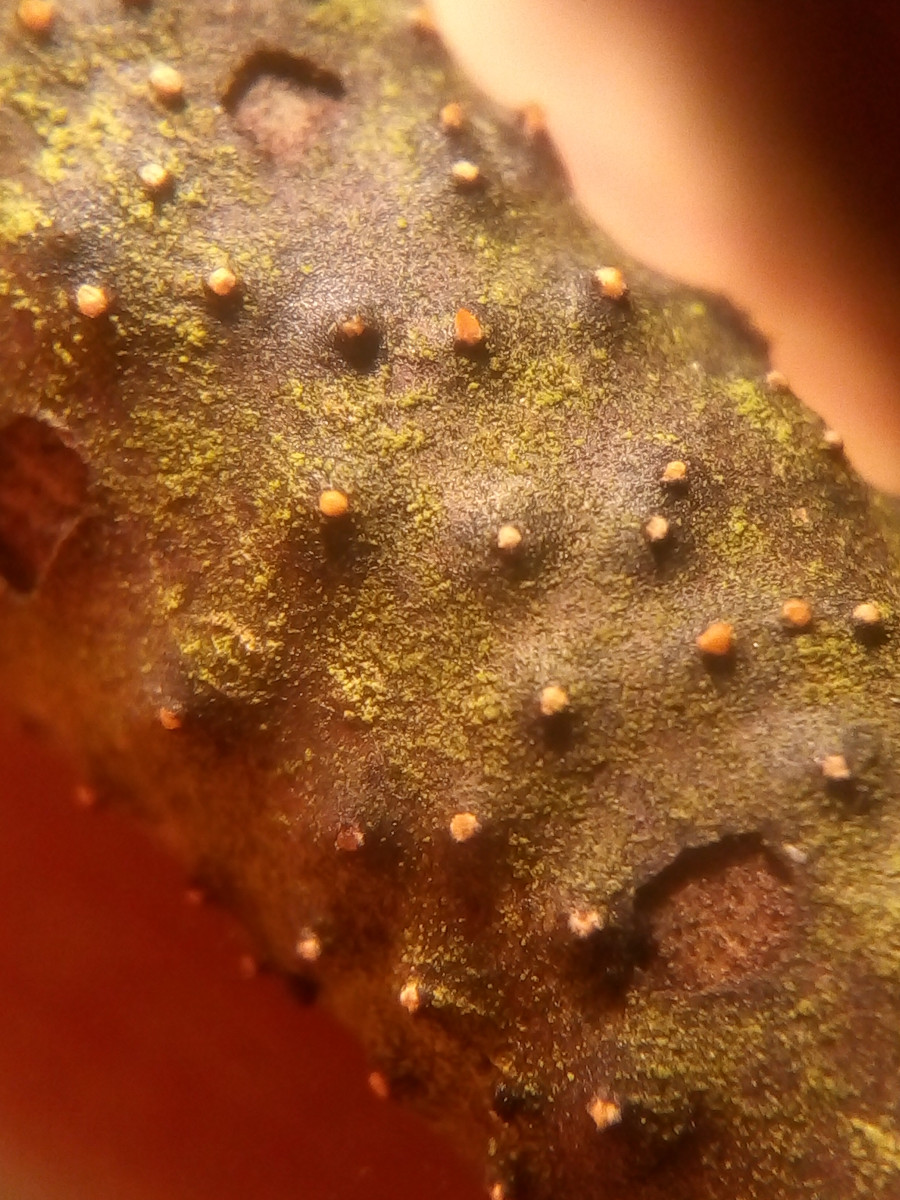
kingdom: Fungi
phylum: Ascomycota
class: Sordariomycetes
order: Hypocreales
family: Flammocladiellaceae
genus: Flammocladiella
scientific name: Flammocladiella decora
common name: kulvulkan-cinnobersvamp
